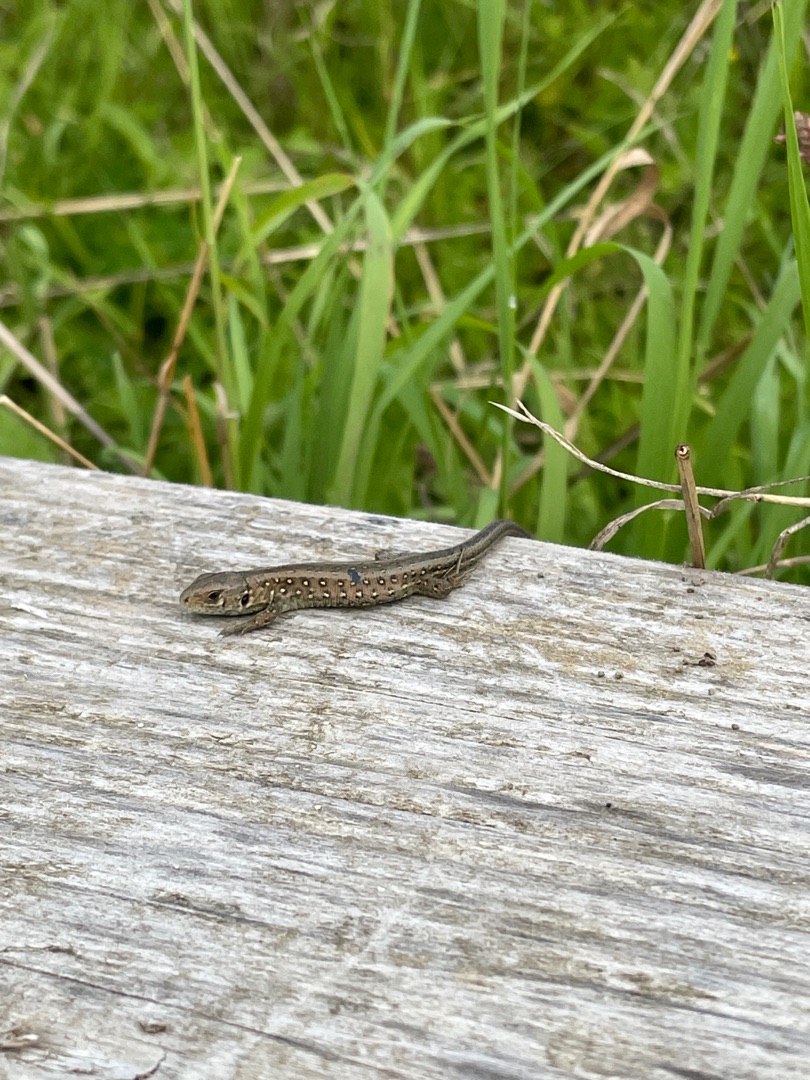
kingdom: Animalia
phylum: Chordata
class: Squamata
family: Lacertidae
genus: Lacerta
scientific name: Lacerta agilis
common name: Markfirben
